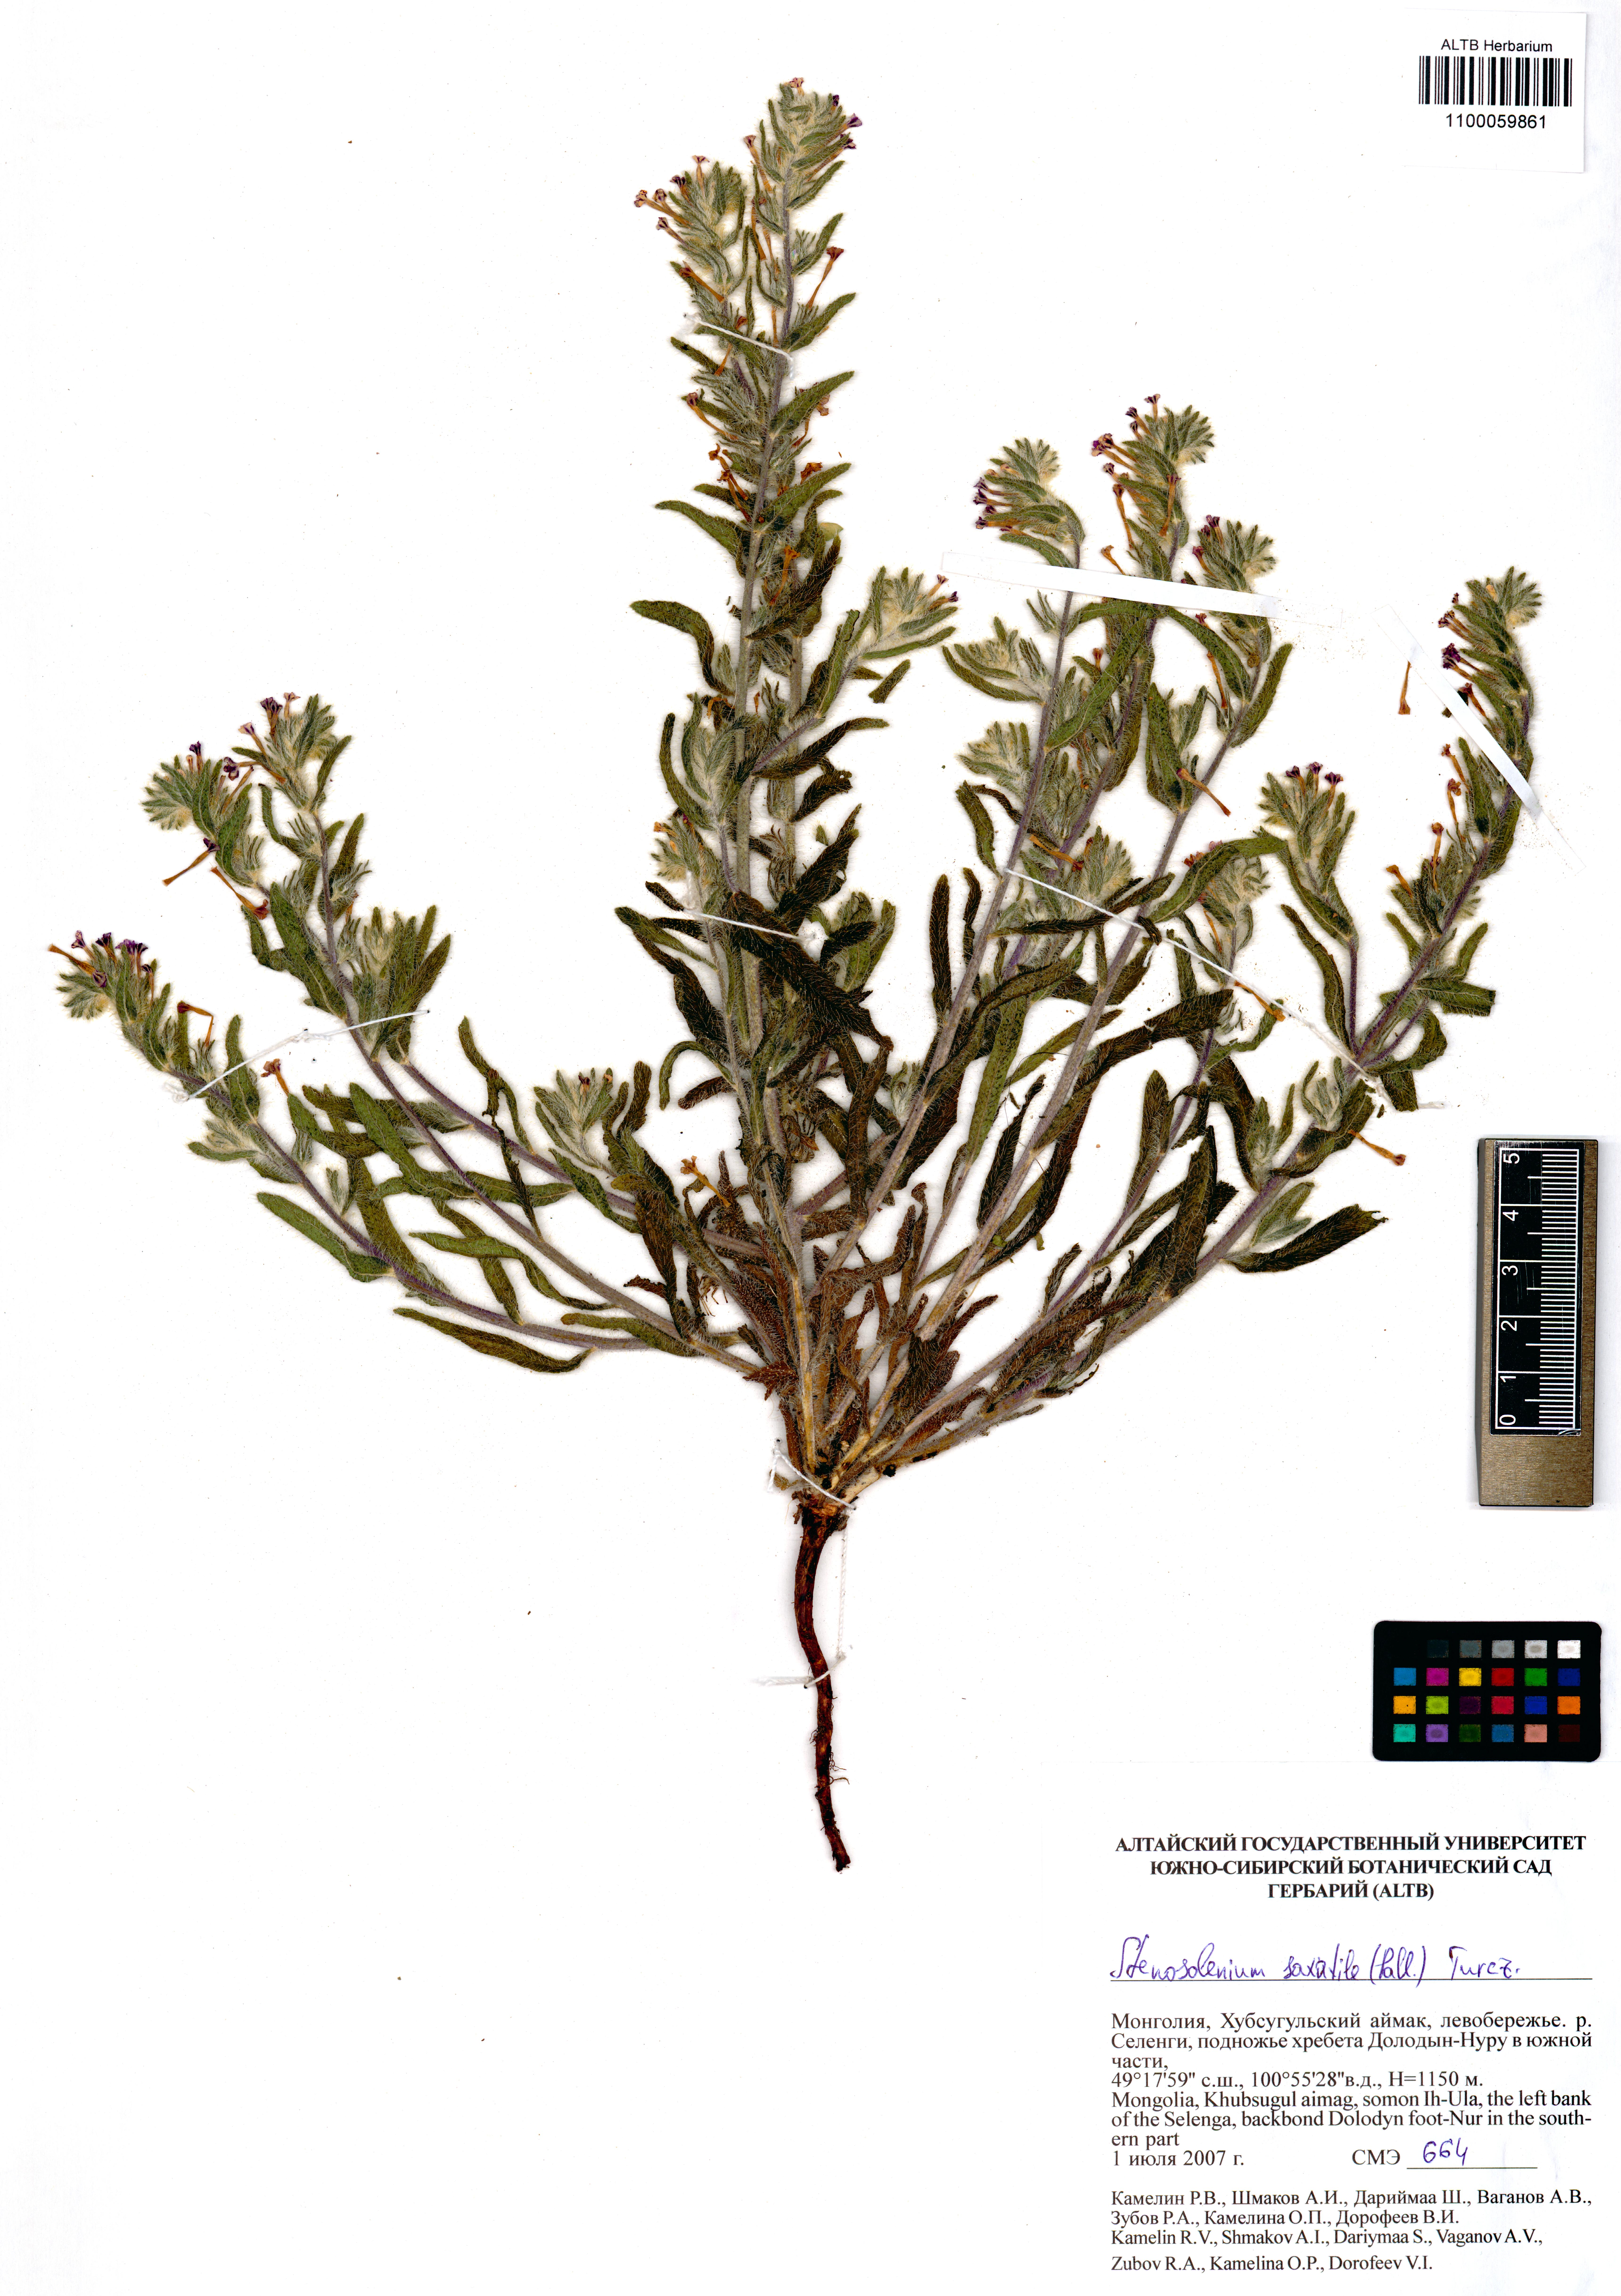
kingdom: Plantae
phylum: Tracheophyta
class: Magnoliopsida
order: Boraginales
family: Boraginaceae
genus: Stenosolenium
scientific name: Stenosolenium saxatile
